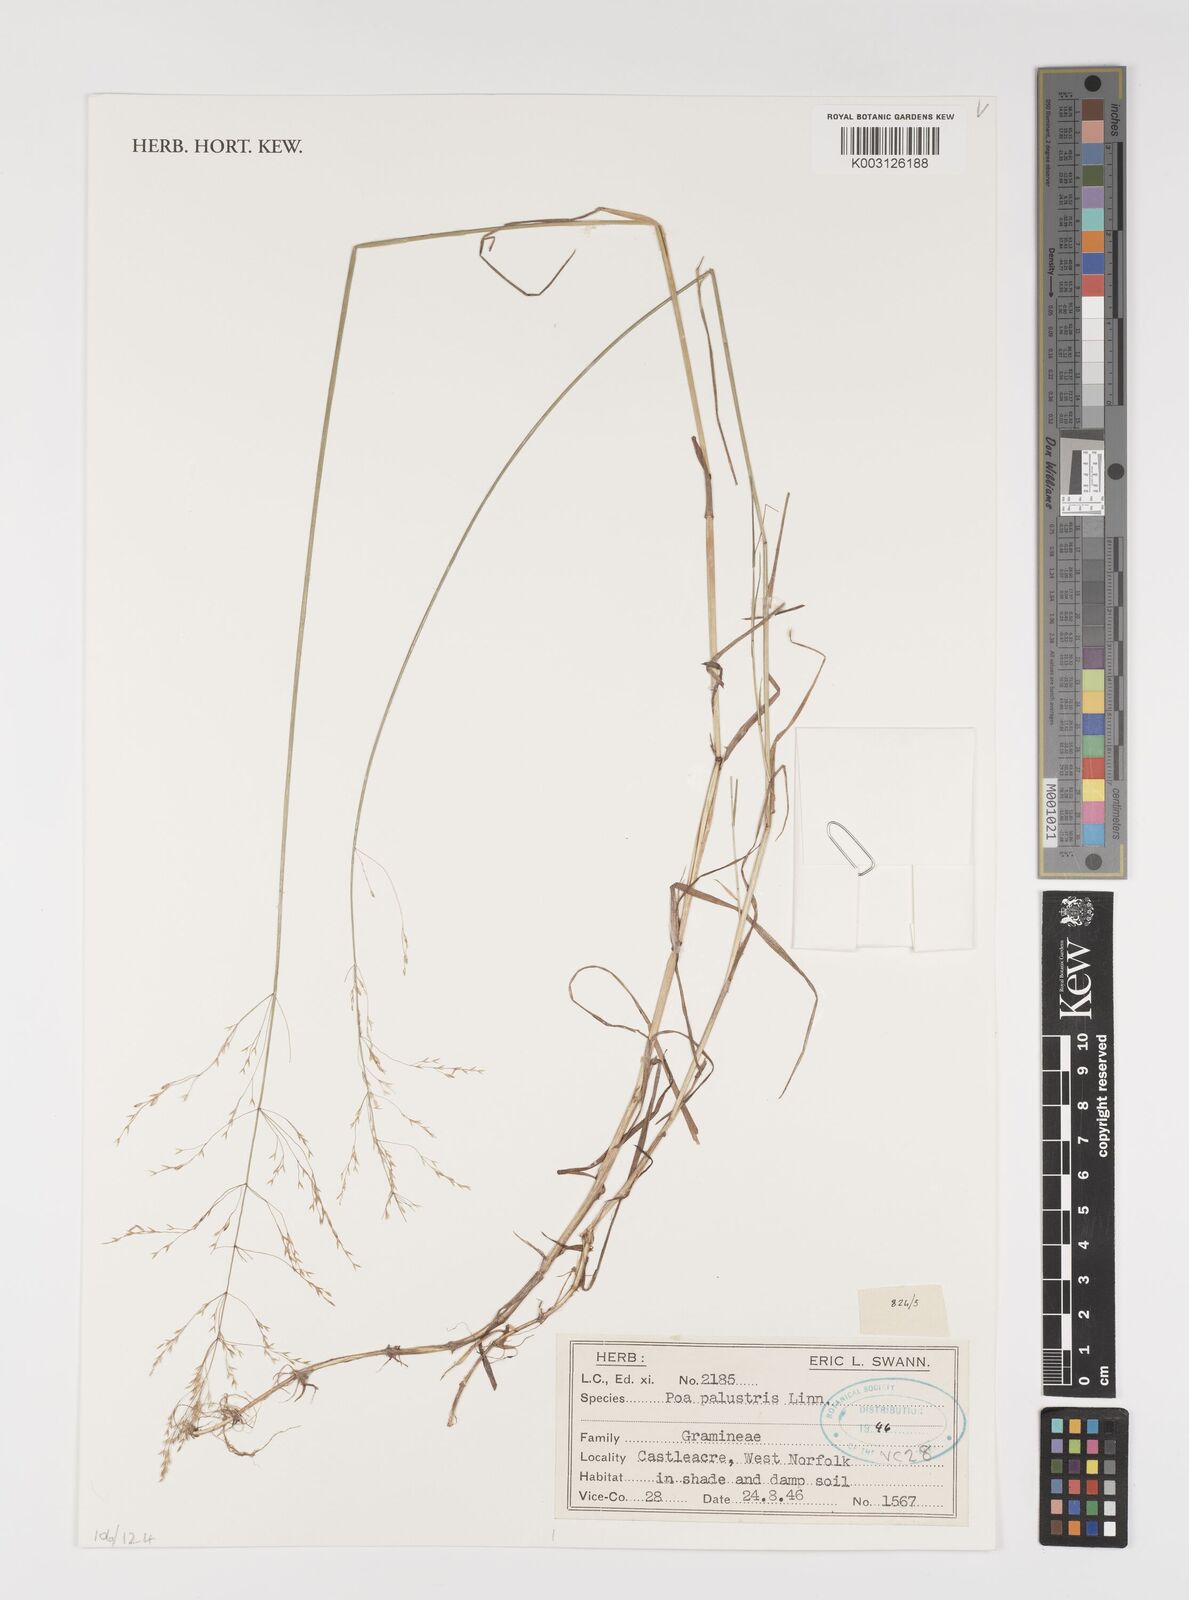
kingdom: Plantae
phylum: Tracheophyta
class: Liliopsida
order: Poales
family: Poaceae
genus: Poa
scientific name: Poa palustris
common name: Swamp meadow-grass
